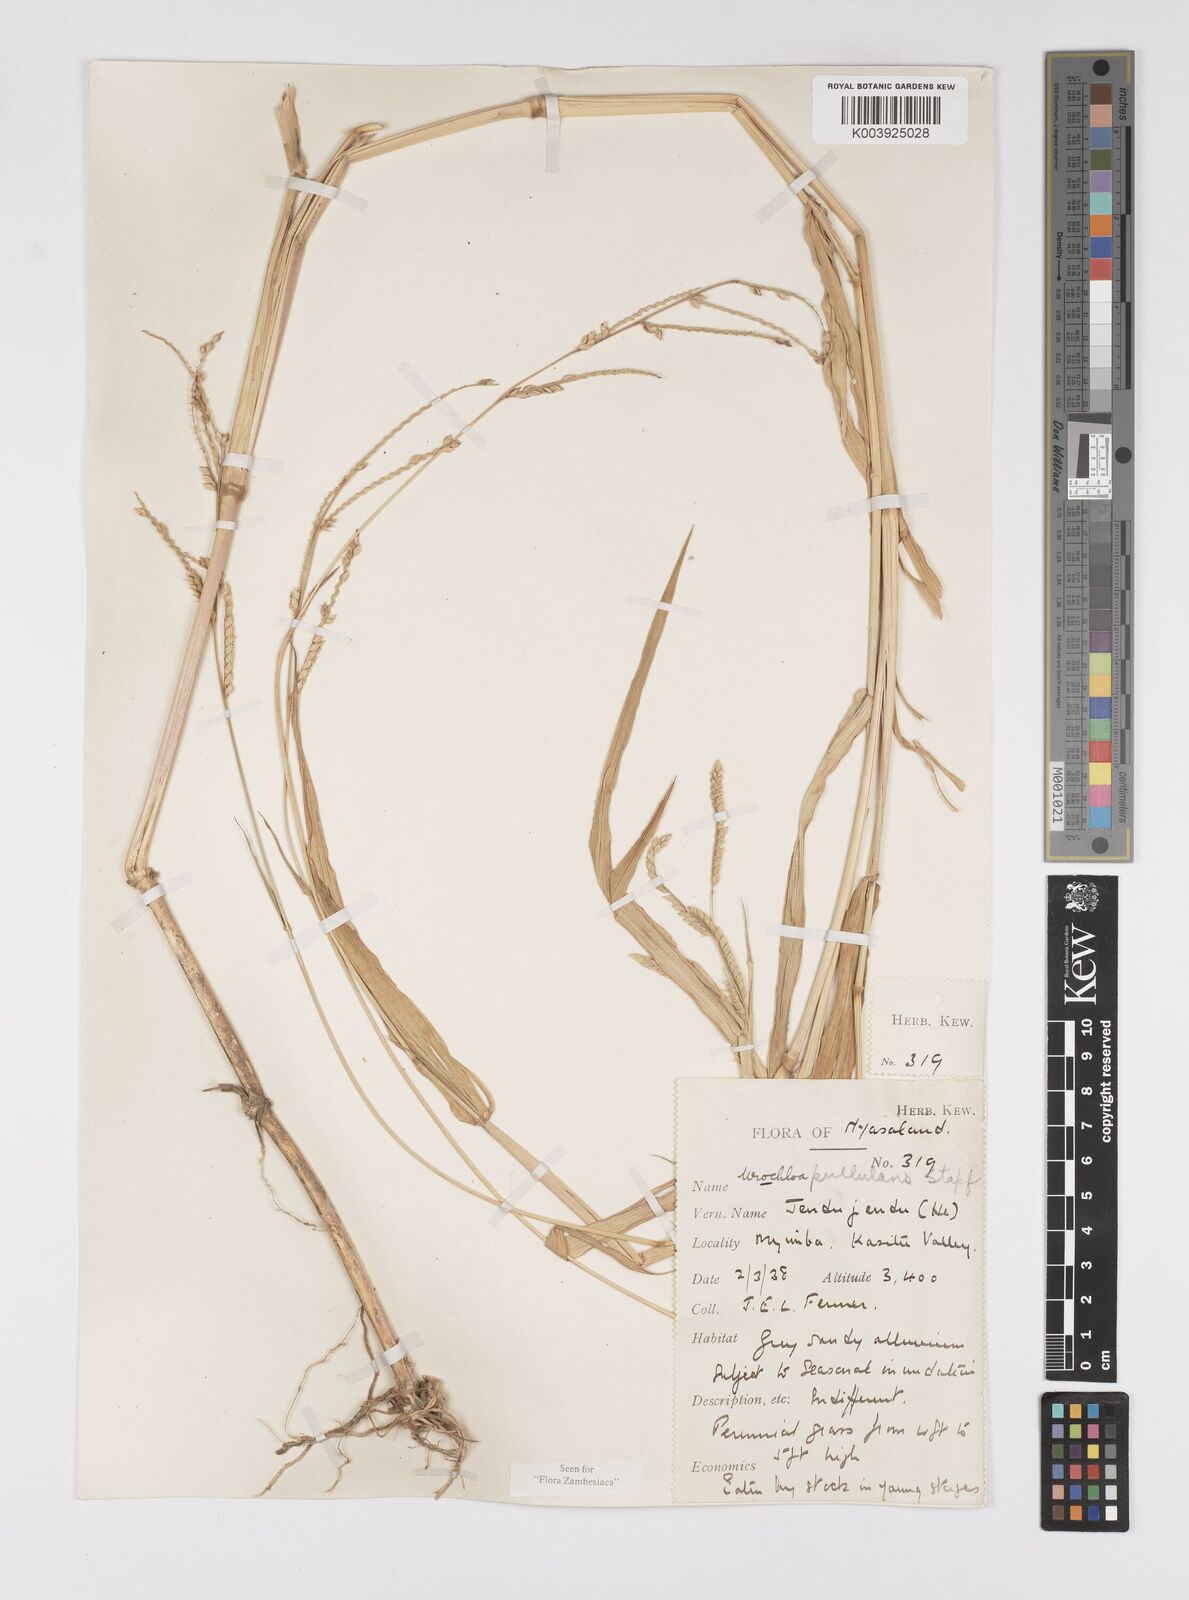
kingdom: Plantae
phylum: Tracheophyta
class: Liliopsida
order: Poales
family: Poaceae
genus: Urochloa
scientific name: Urochloa trichopus
